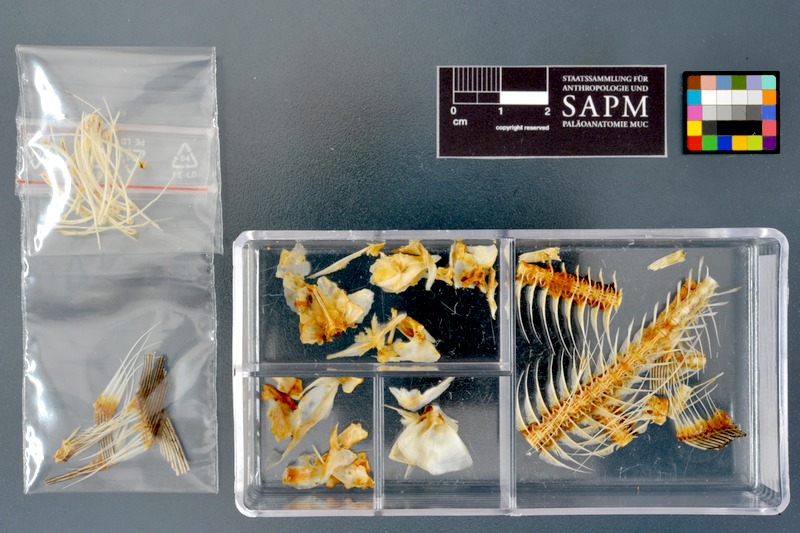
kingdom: Animalia
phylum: Chordata
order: Osteoglossiformes
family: Mormyridae
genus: Marcusenius
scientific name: Marcusenius cyprinoides
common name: Trunkfish
